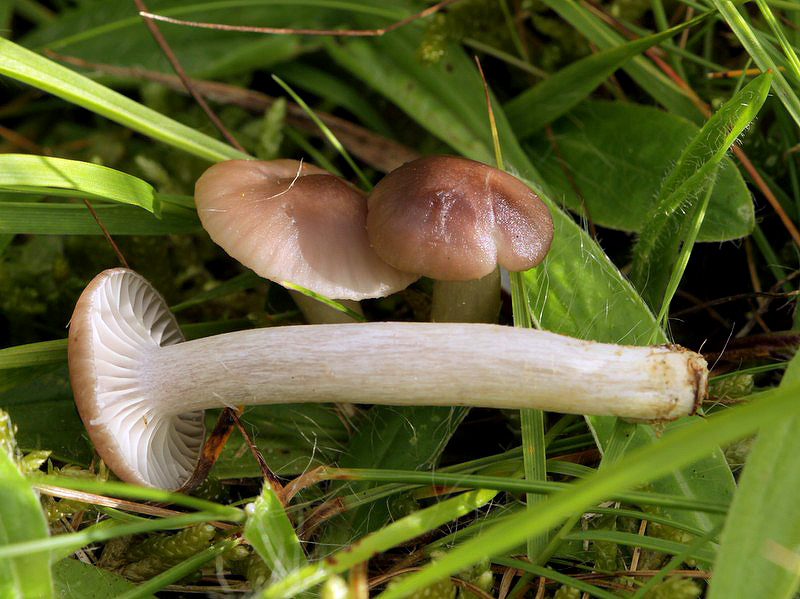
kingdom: Fungi
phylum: Basidiomycota
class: Agaricomycetes
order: Agaricales
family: Hygrophoraceae
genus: Cuphophyllus
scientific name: Cuphophyllus flavipesoides
